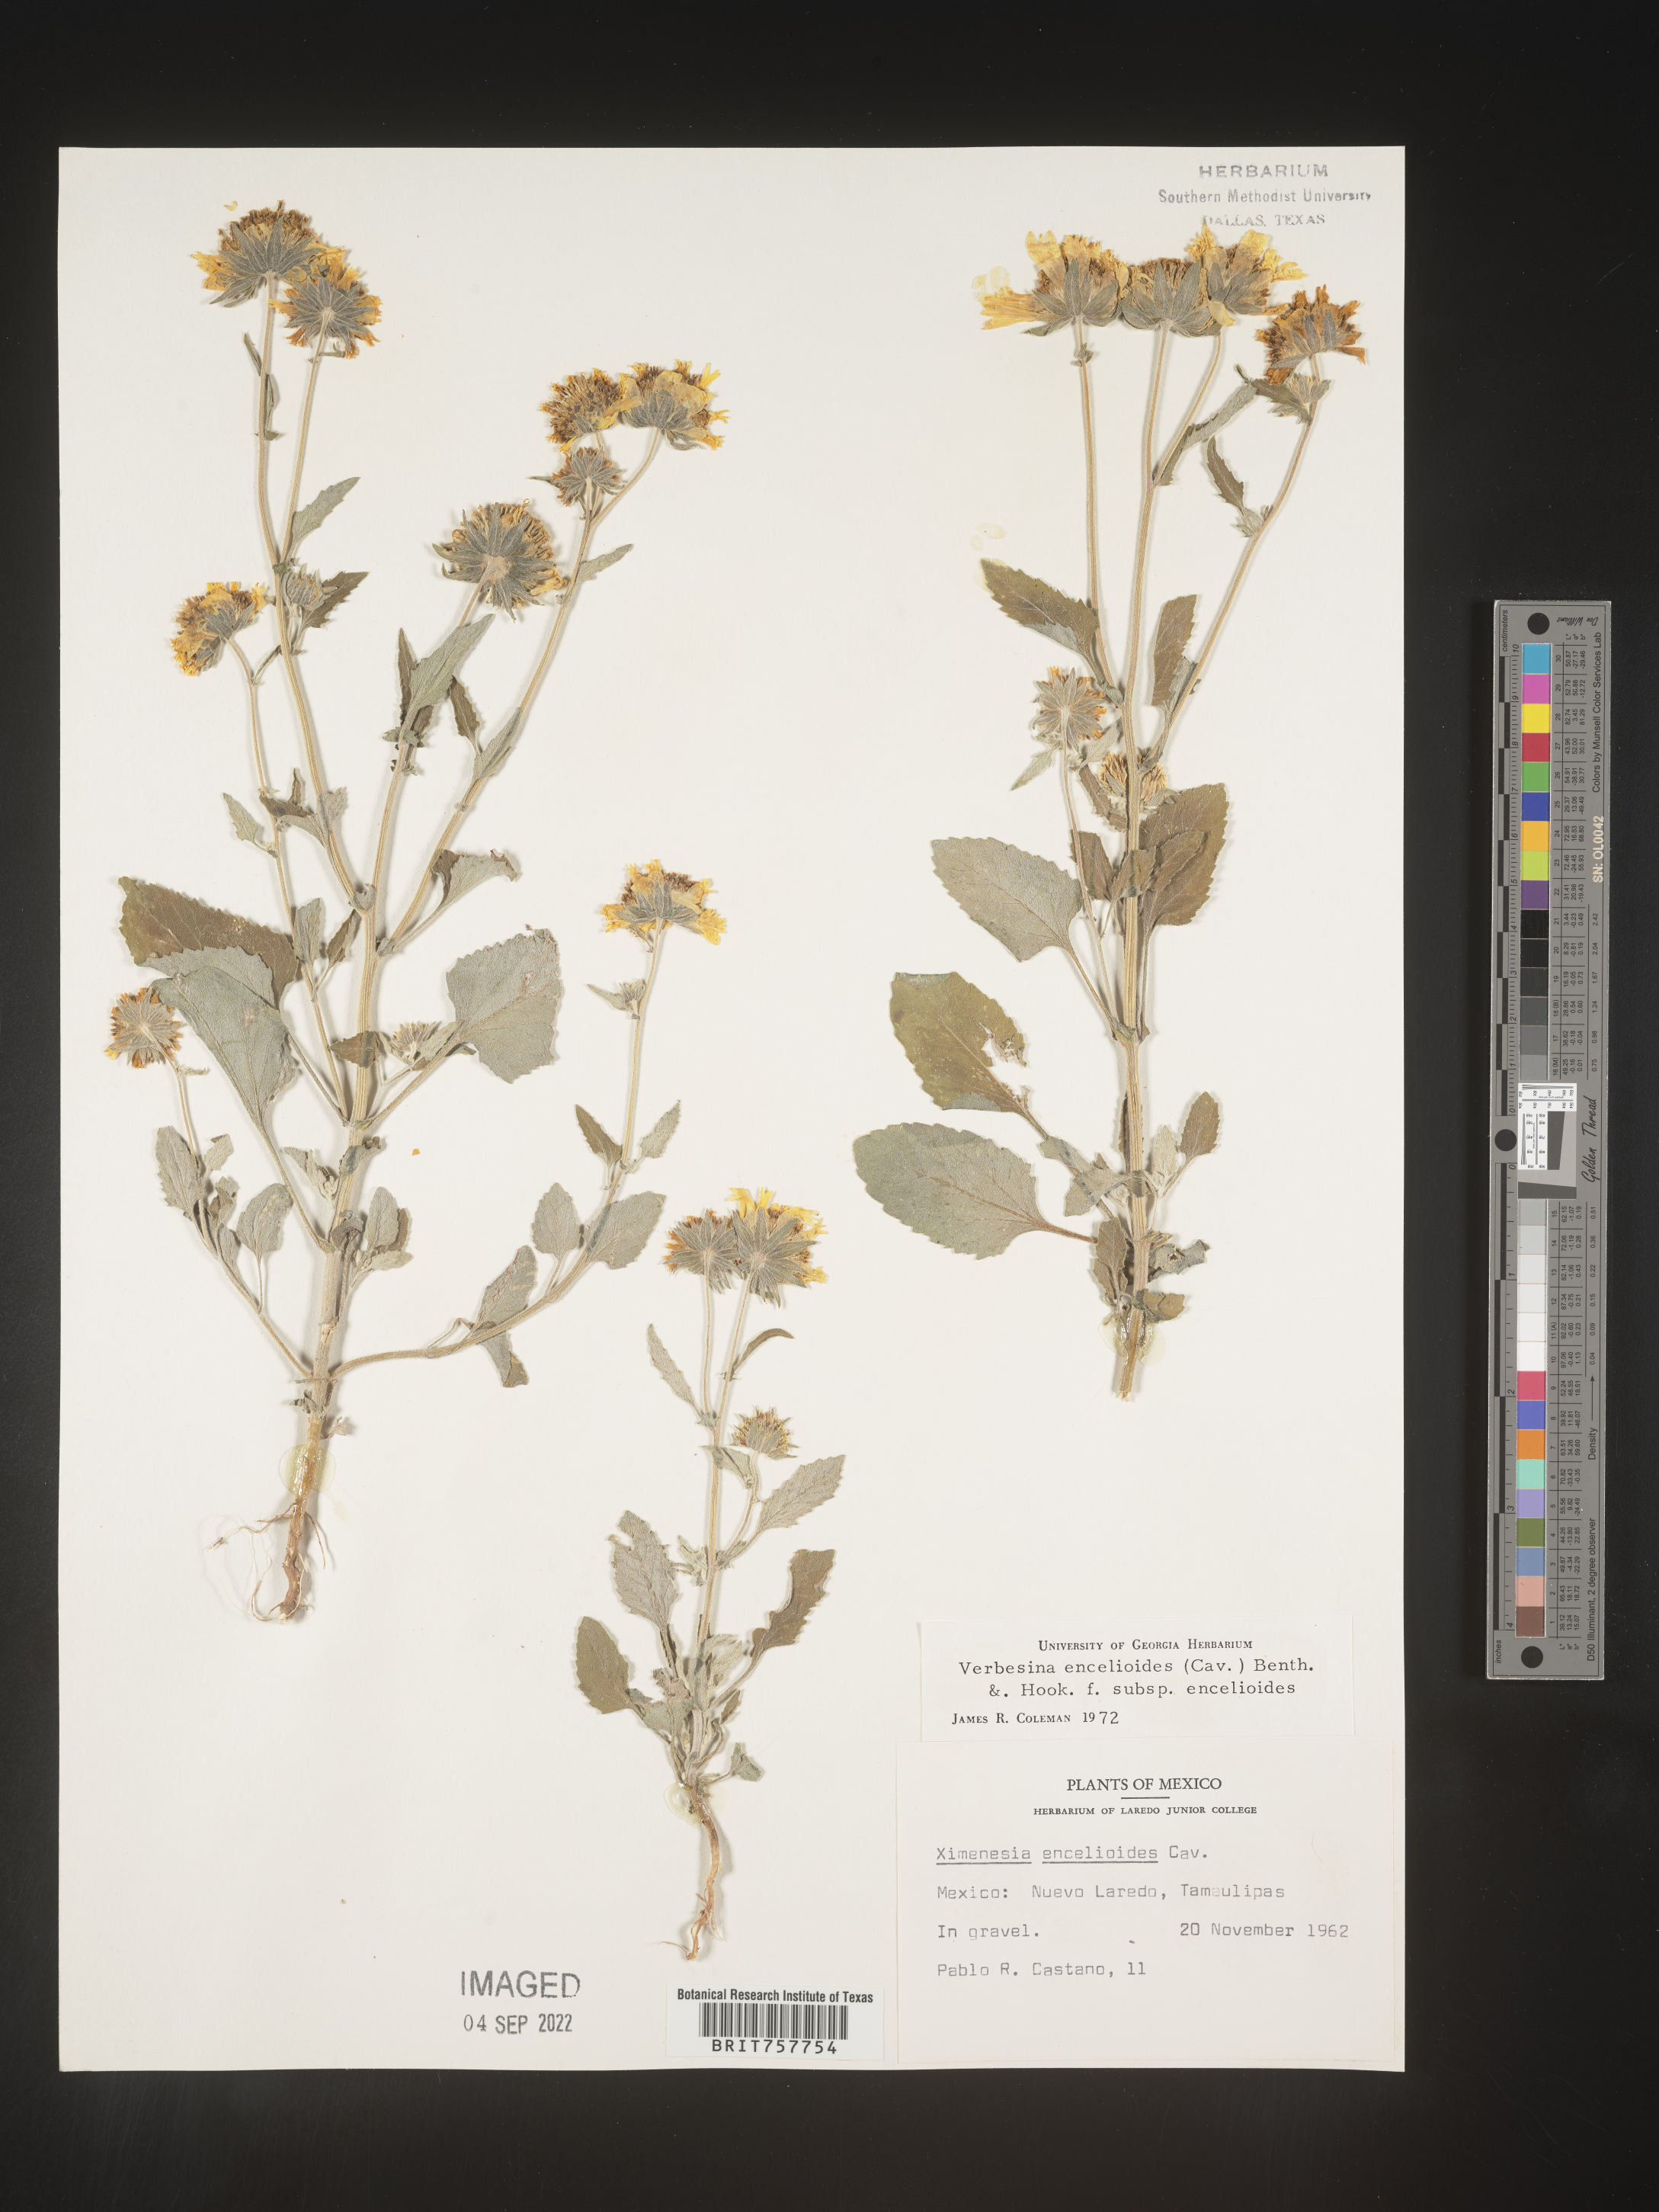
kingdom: Plantae
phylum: Tracheophyta
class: Magnoliopsida
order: Asterales
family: Asteraceae
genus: Verbesina
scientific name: Verbesina
